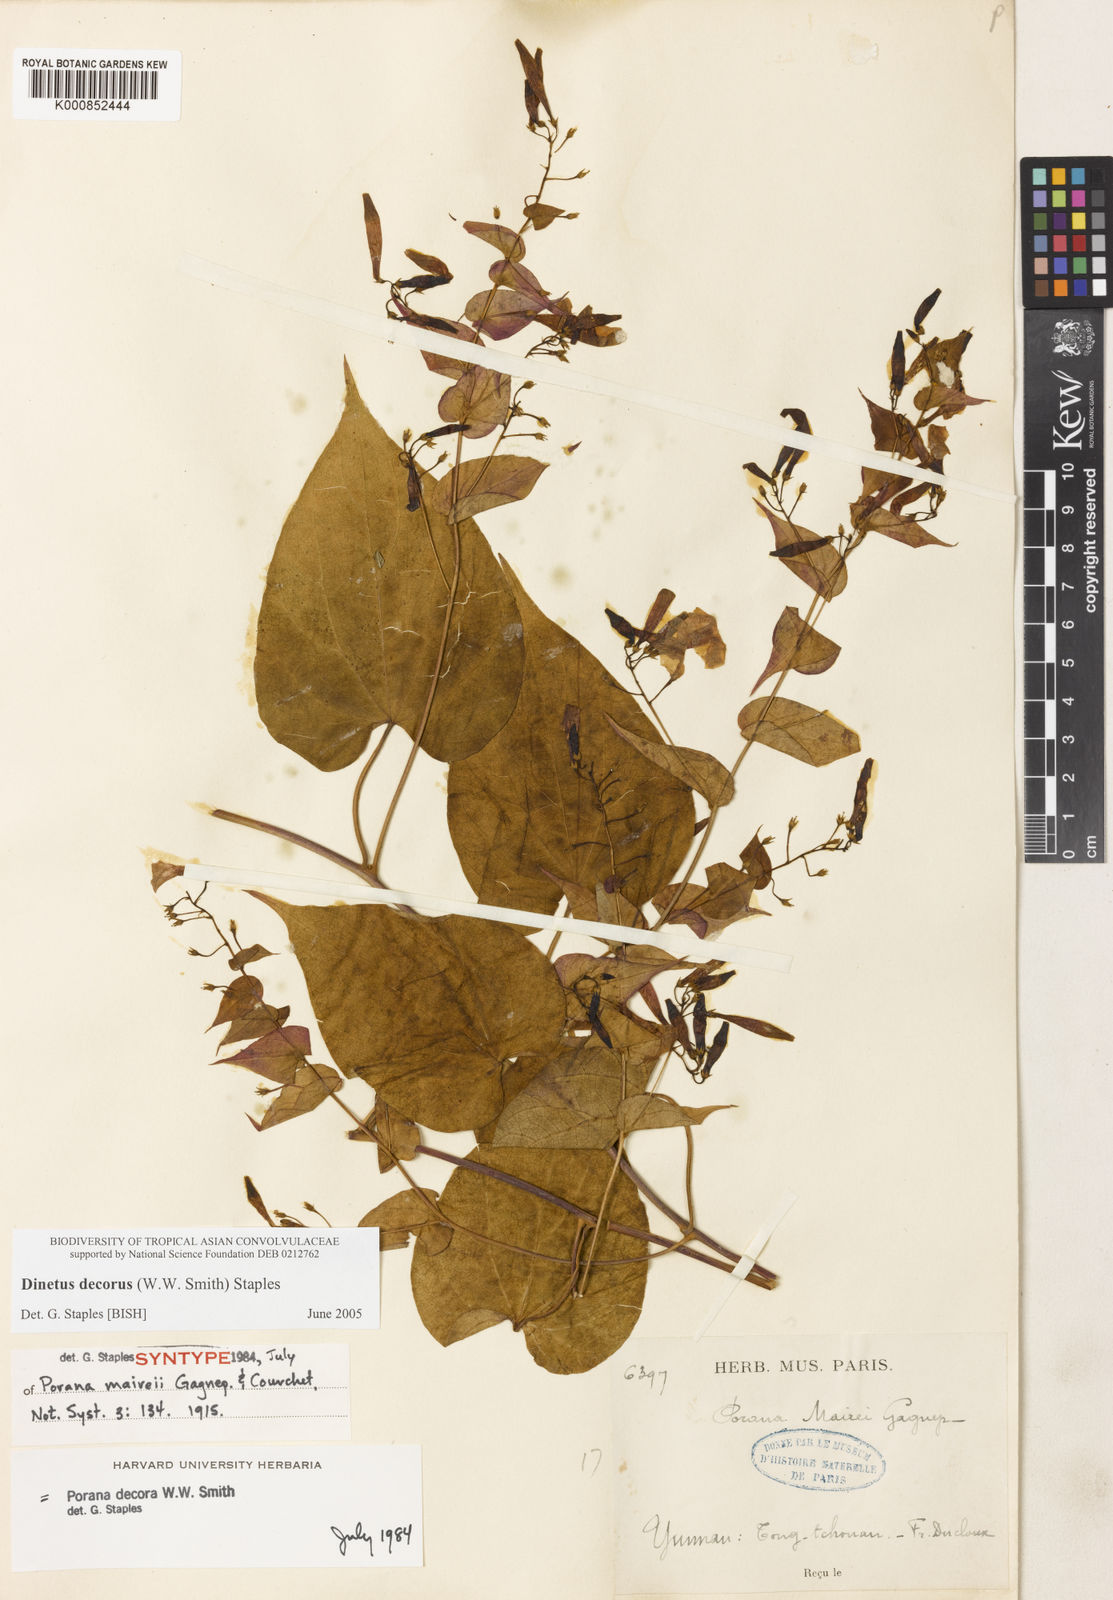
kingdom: Plantae
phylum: Tracheophyta
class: Magnoliopsida
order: Solanales
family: Convolvulaceae
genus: Dinetus
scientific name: Dinetus decorus
